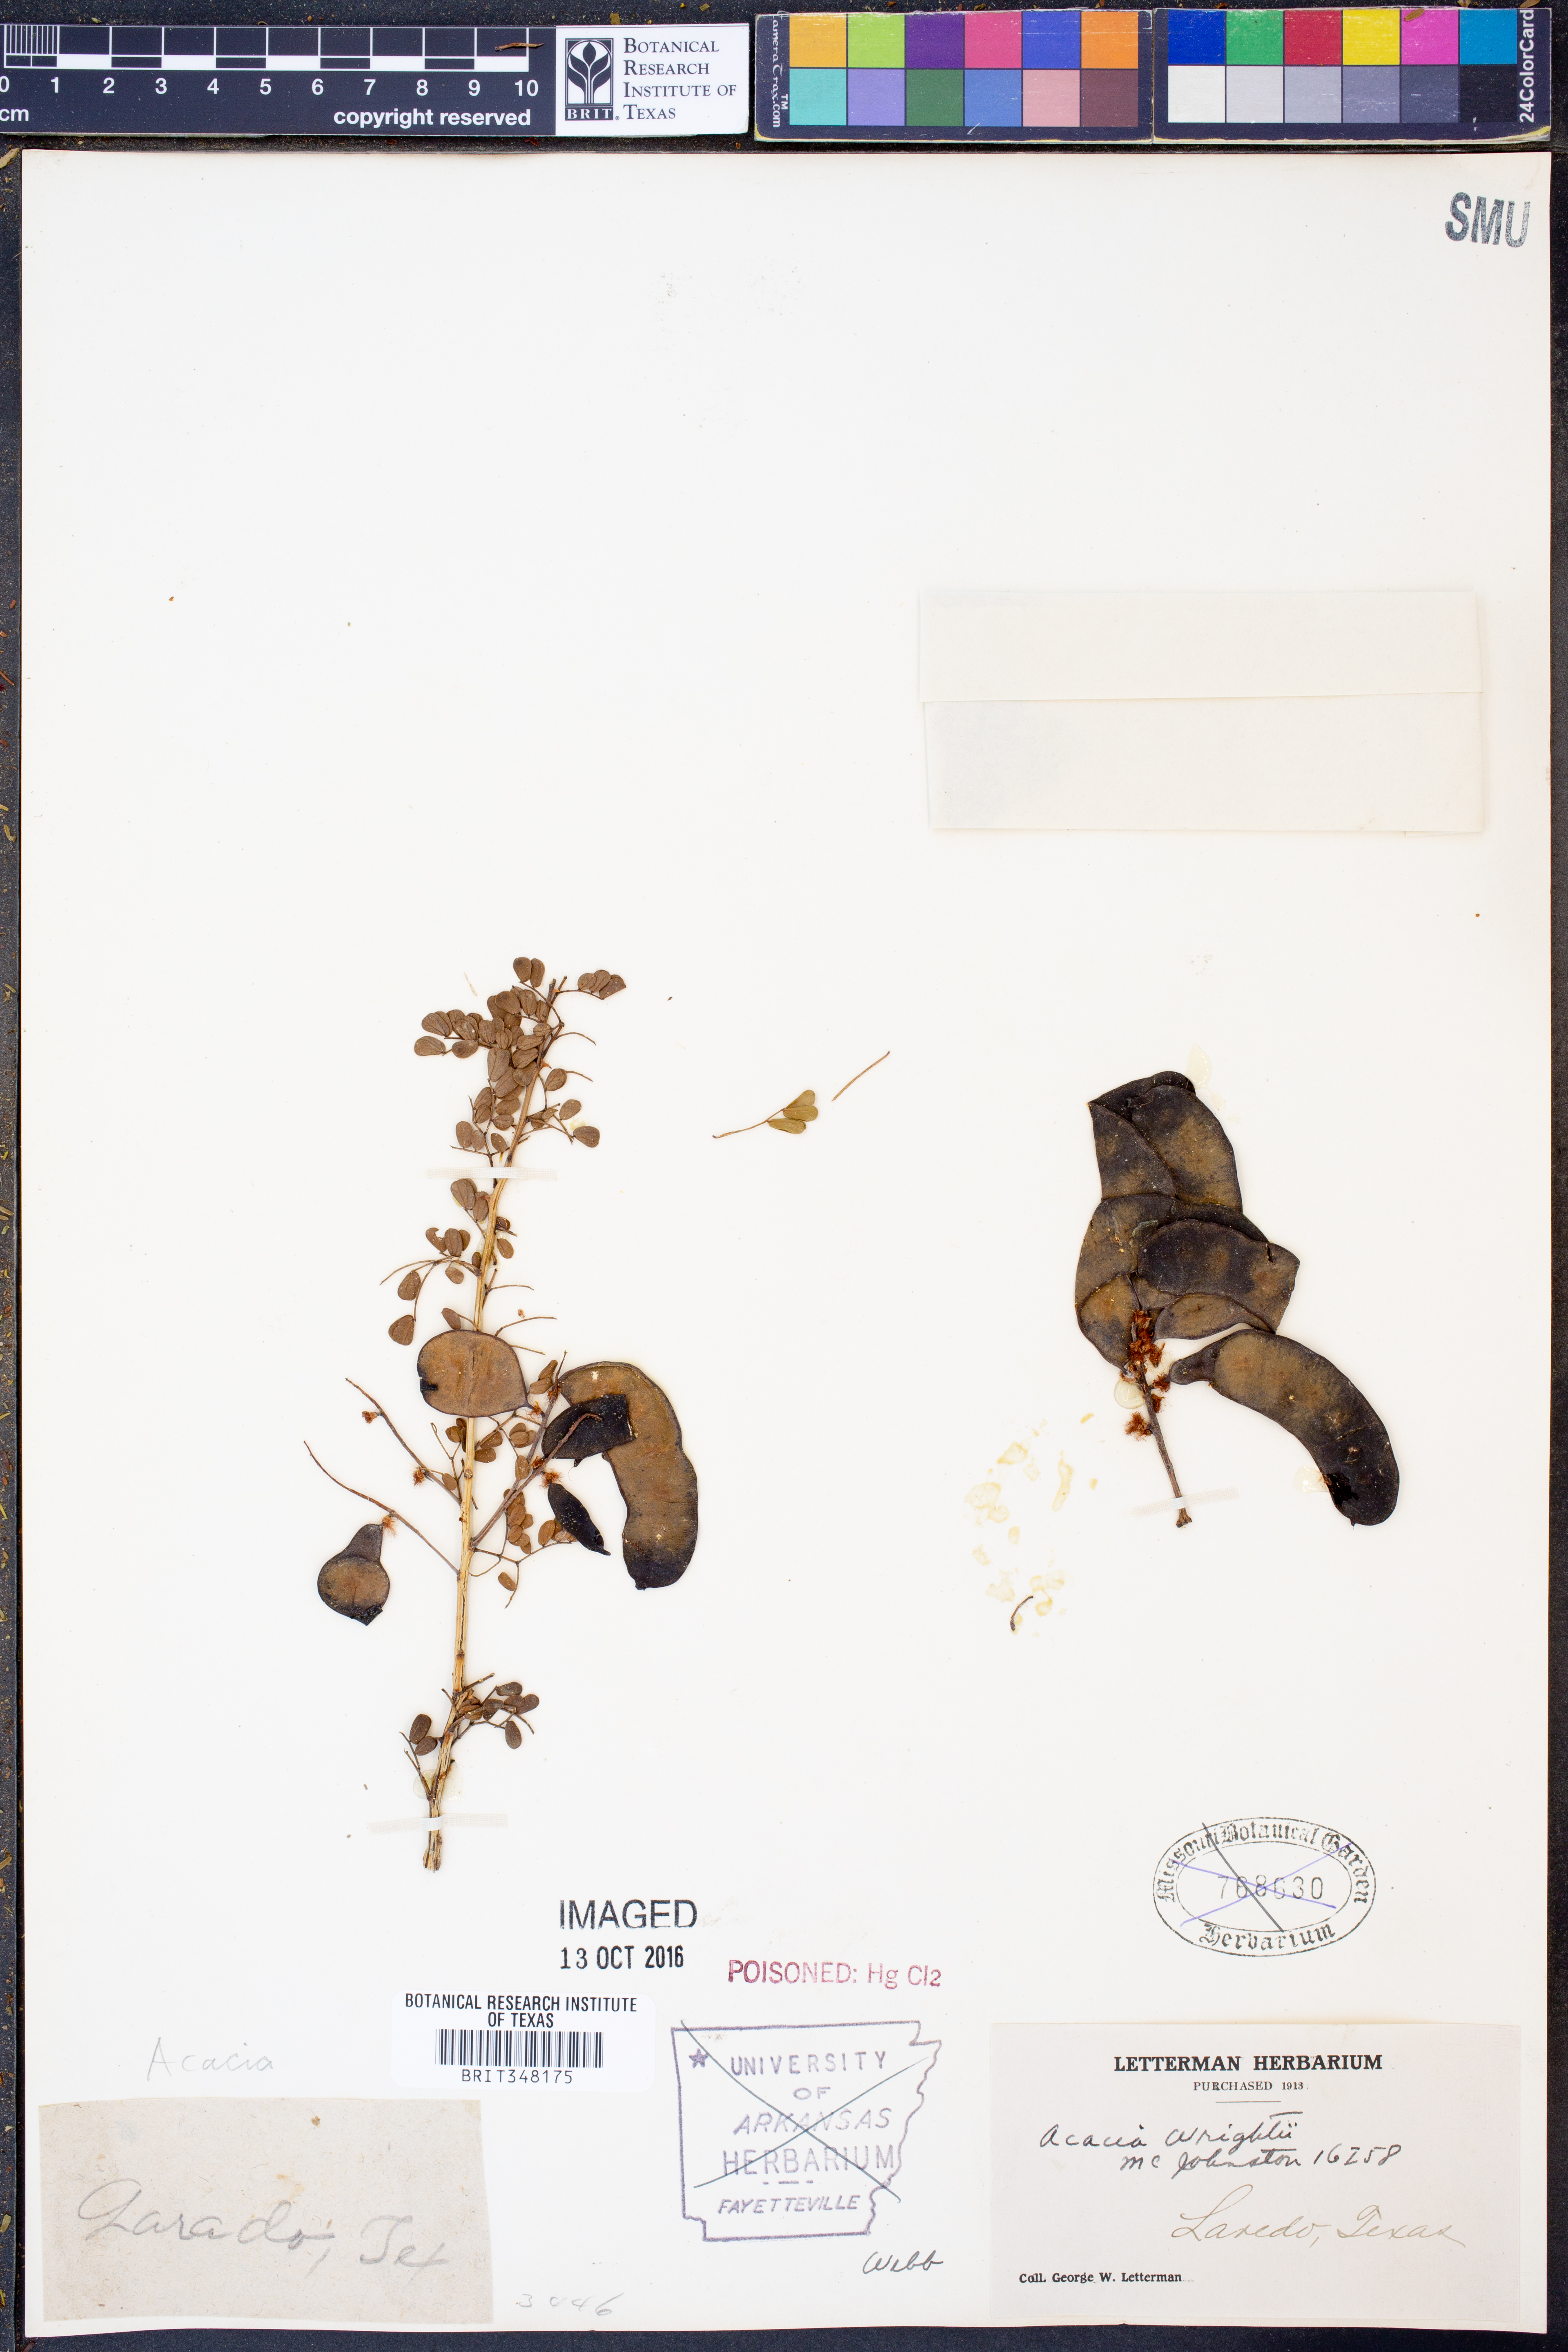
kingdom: Plantae
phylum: Tracheophyta
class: Magnoliopsida
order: Fabales
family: Fabaceae
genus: Senegalia
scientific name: Senegalia wrightii
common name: Texas cat's-claw
